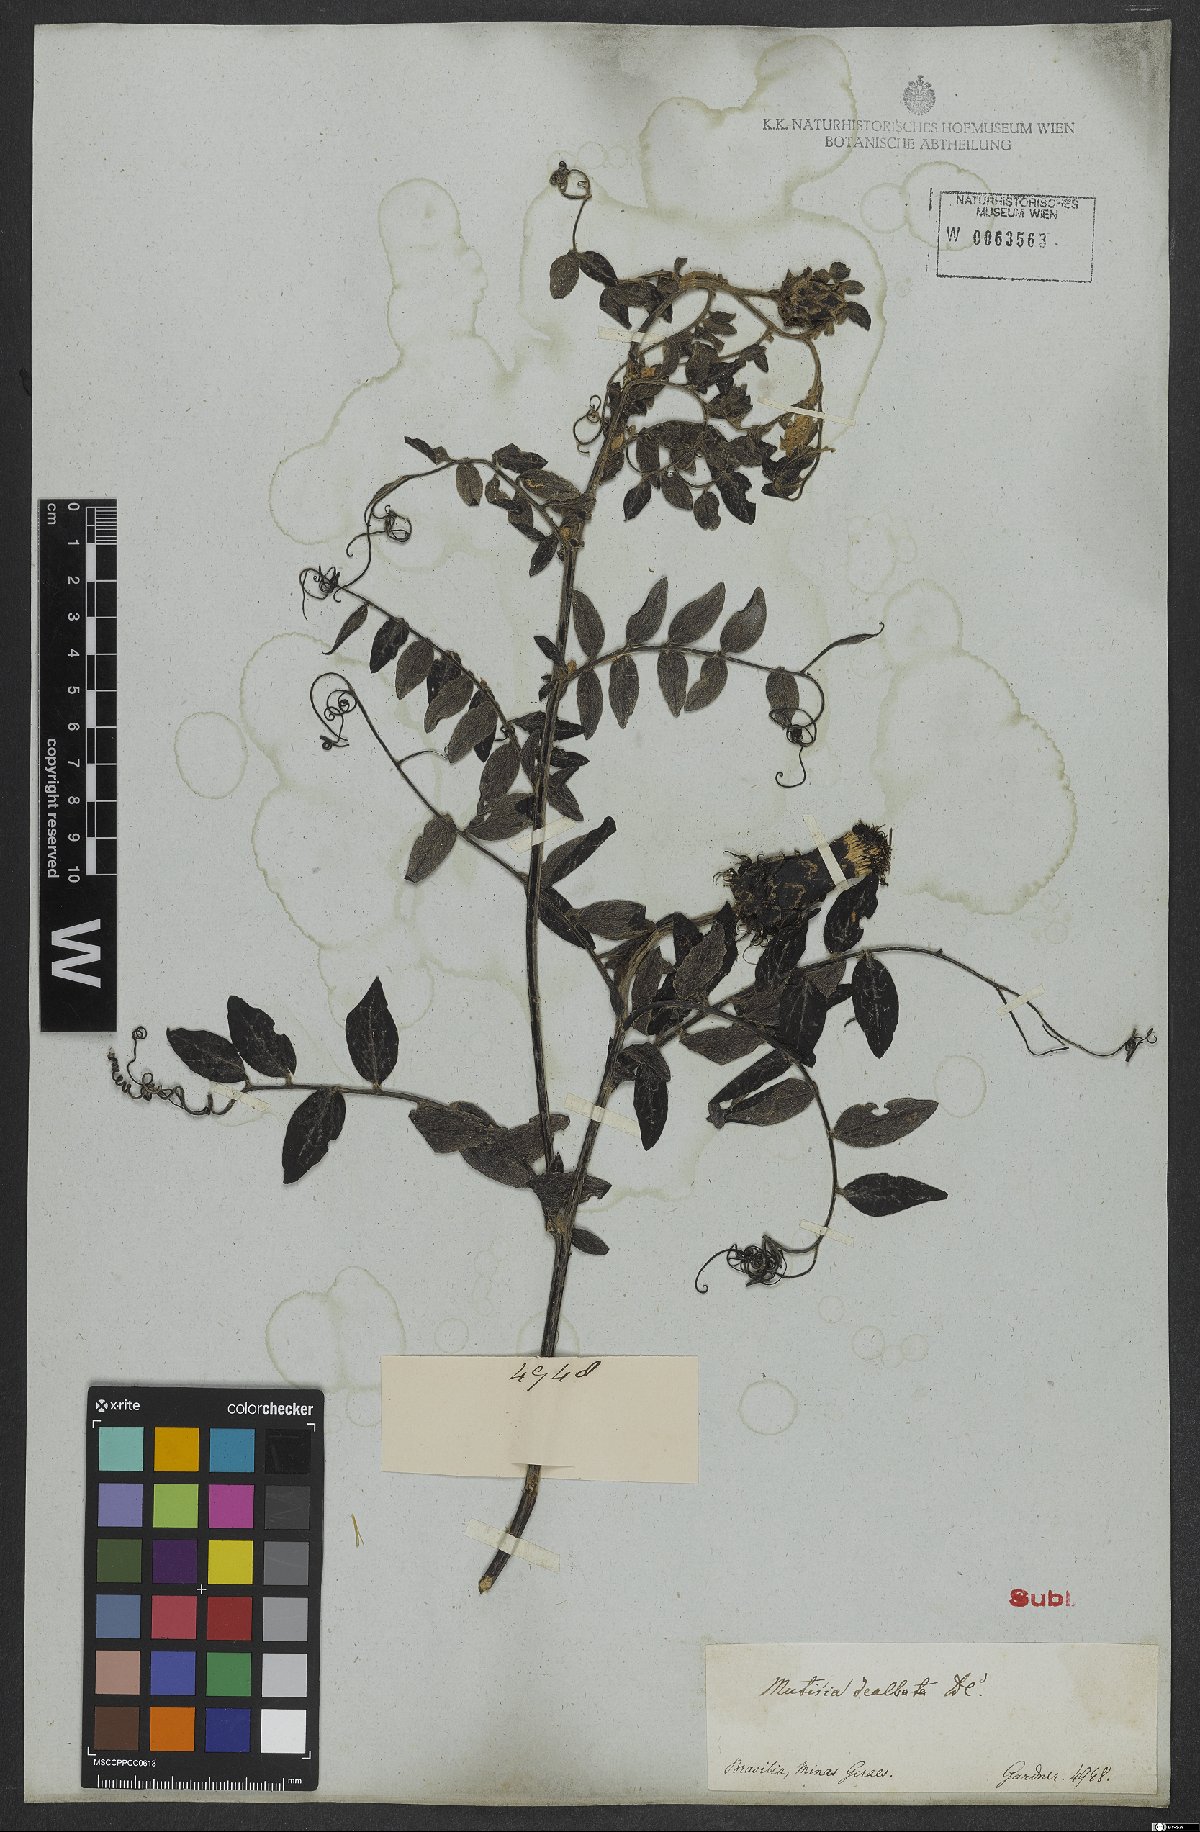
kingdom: Plantae
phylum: Tracheophyta
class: Magnoliopsida
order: Asterales
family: Asteraceae
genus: Mutisia
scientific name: Mutisia coccinea
